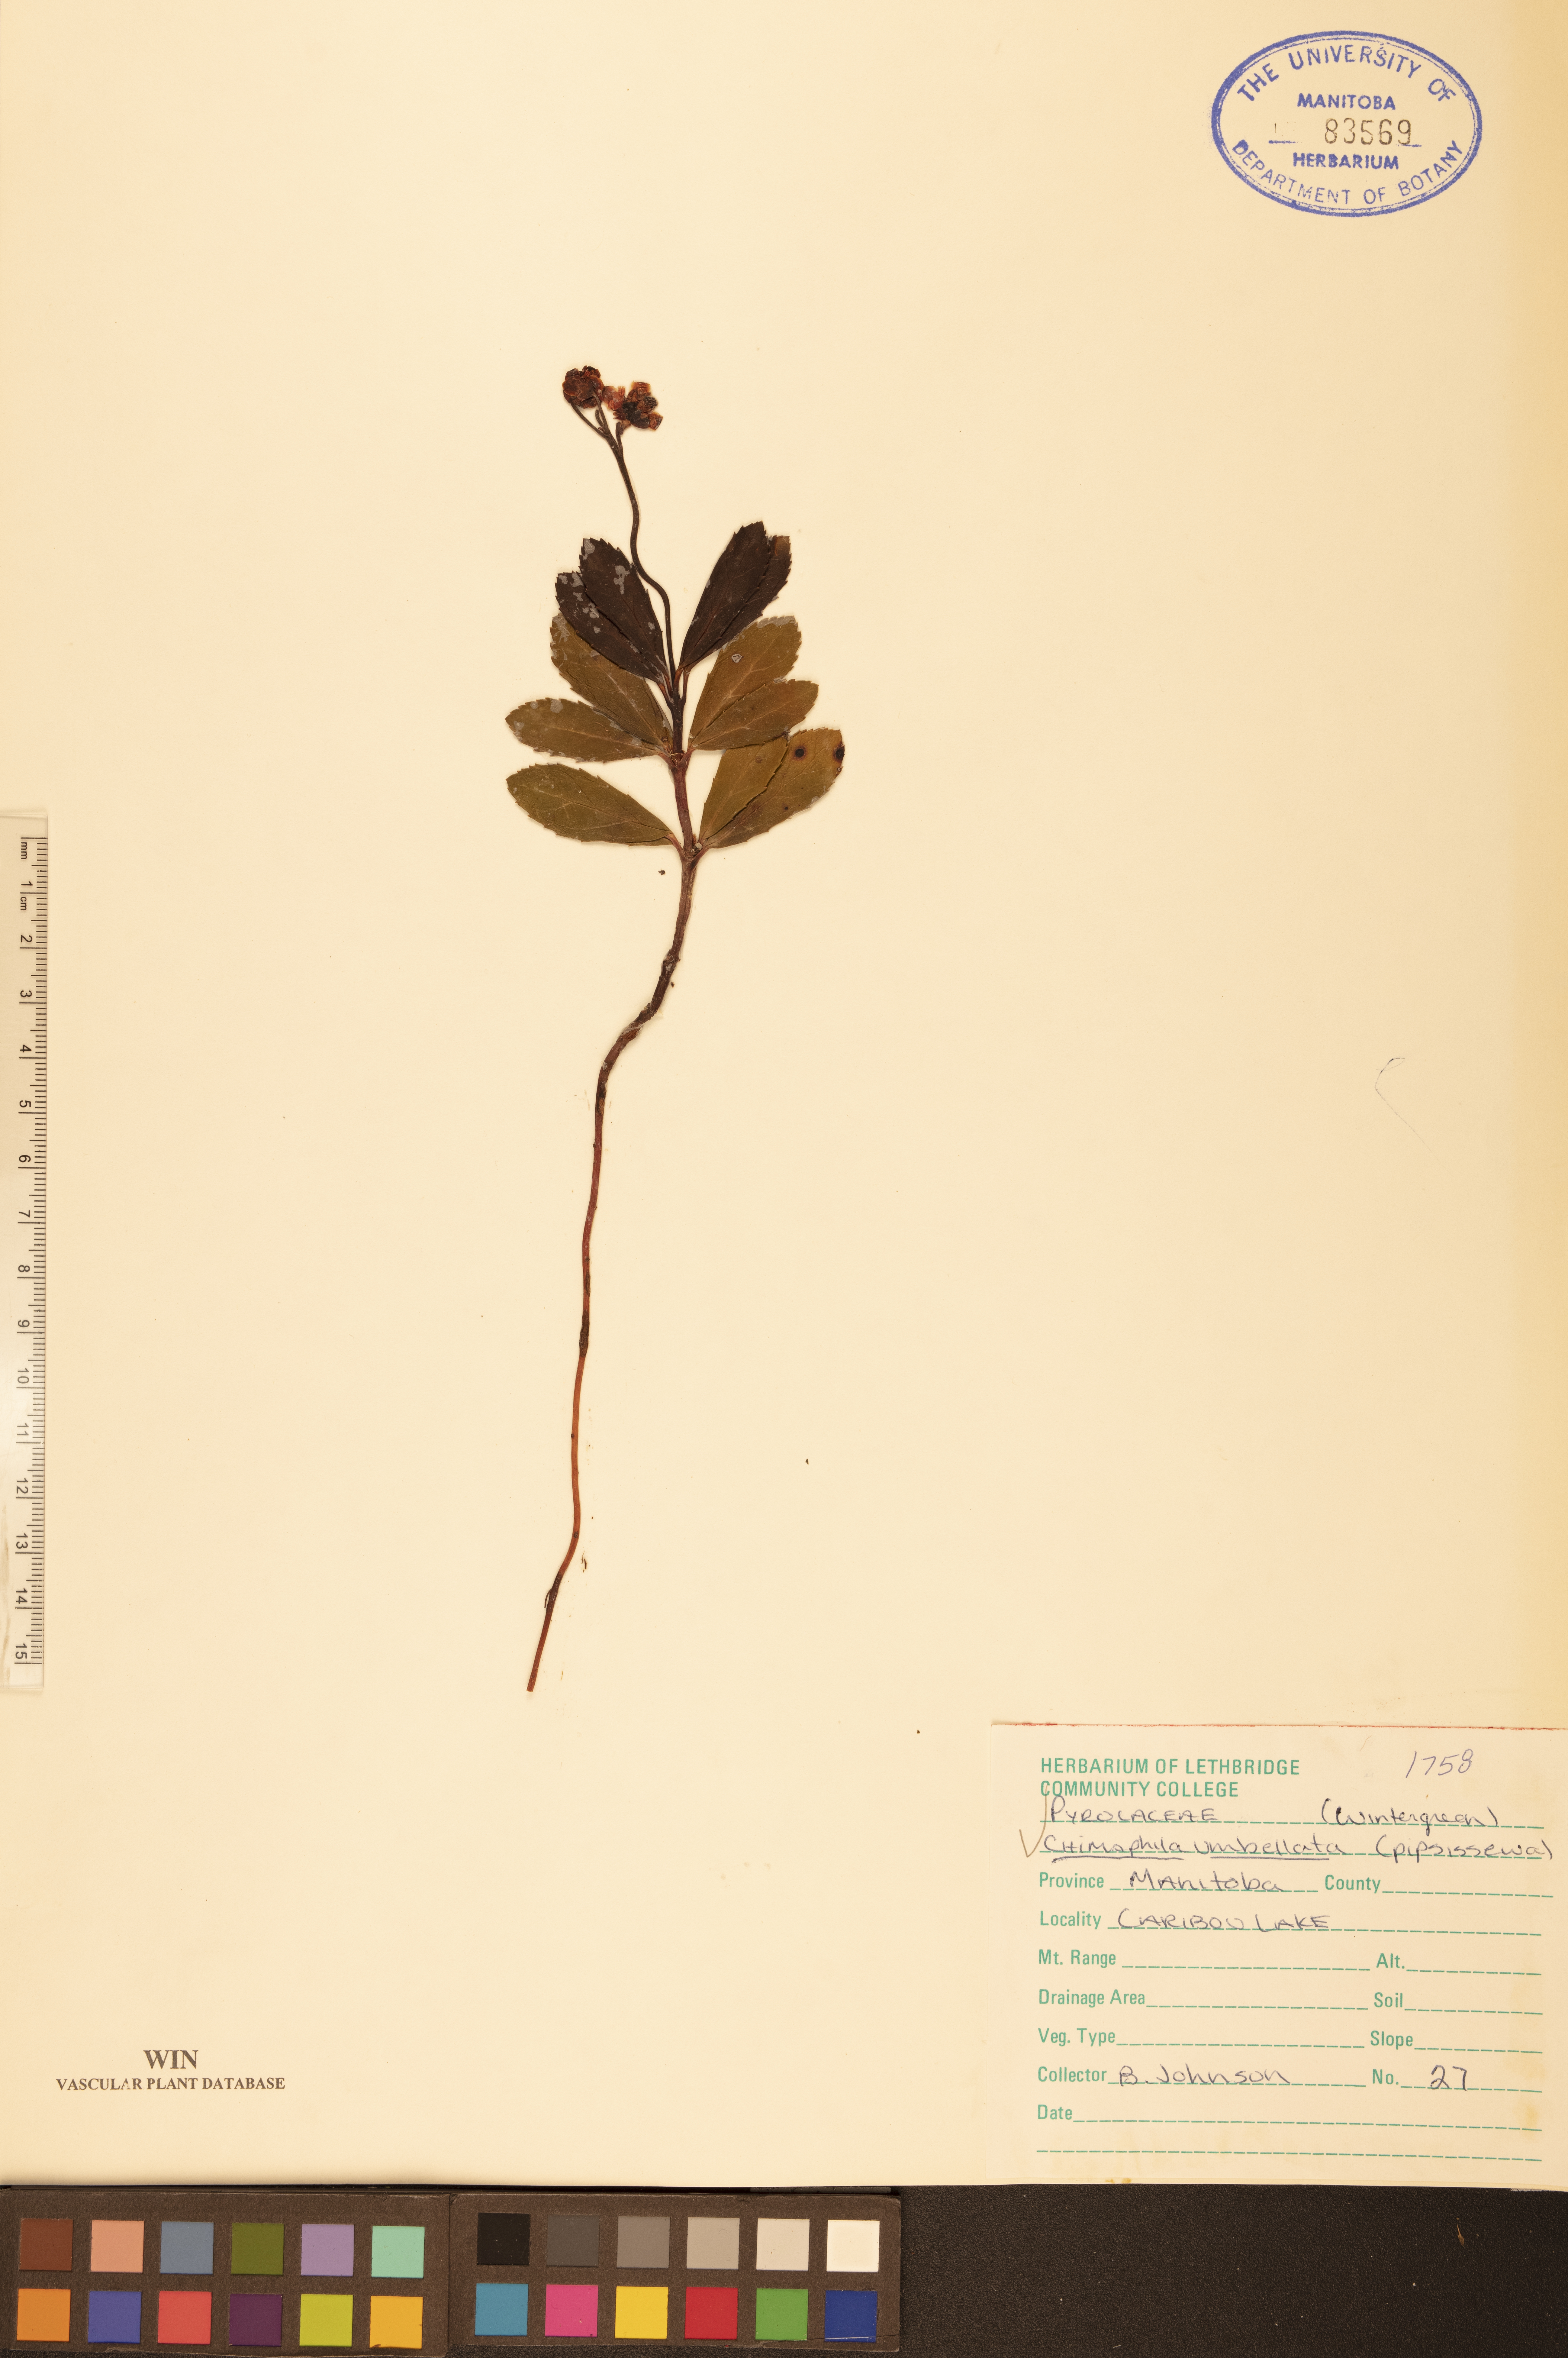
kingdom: Plantae
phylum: Tracheophyta
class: Magnoliopsida
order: Ericales
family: Ericaceae
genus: Chimaphila
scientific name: Chimaphila umbellata
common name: Pipsissewa
